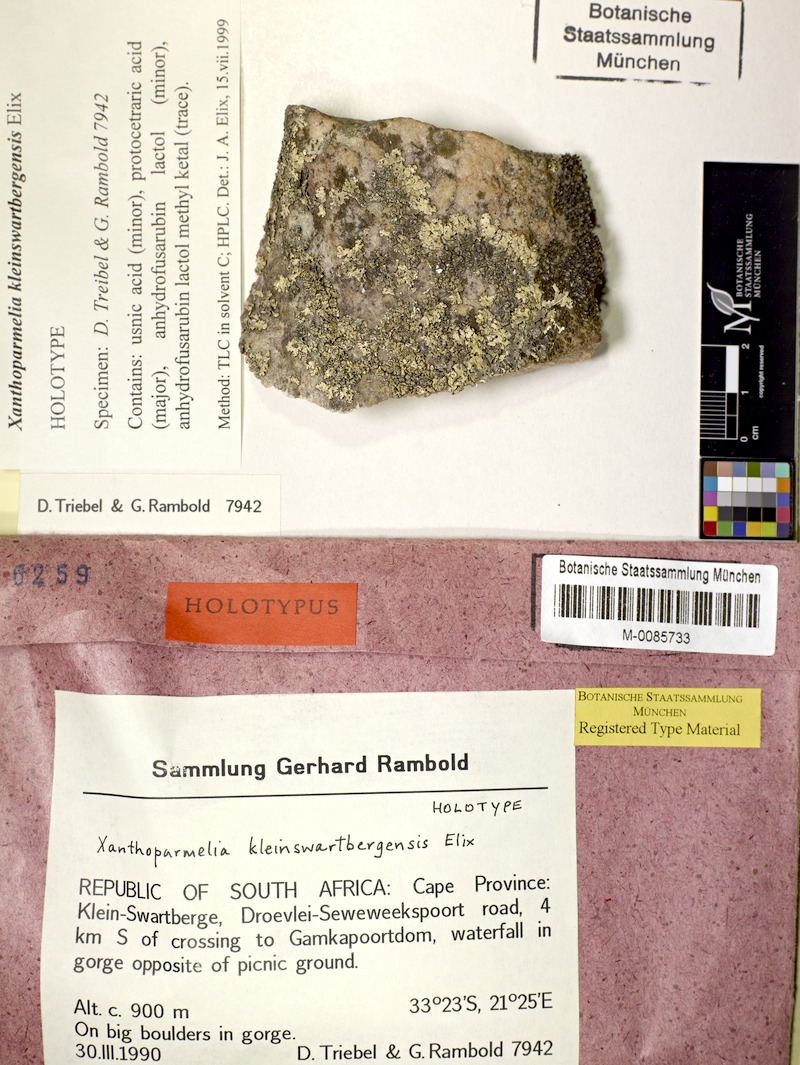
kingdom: Fungi
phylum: Ascomycota
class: Lecanoromycetes
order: Lecanorales
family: Parmeliaceae
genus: Xanthoparmelia
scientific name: Xanthoparmelia kleinswartbergensis
